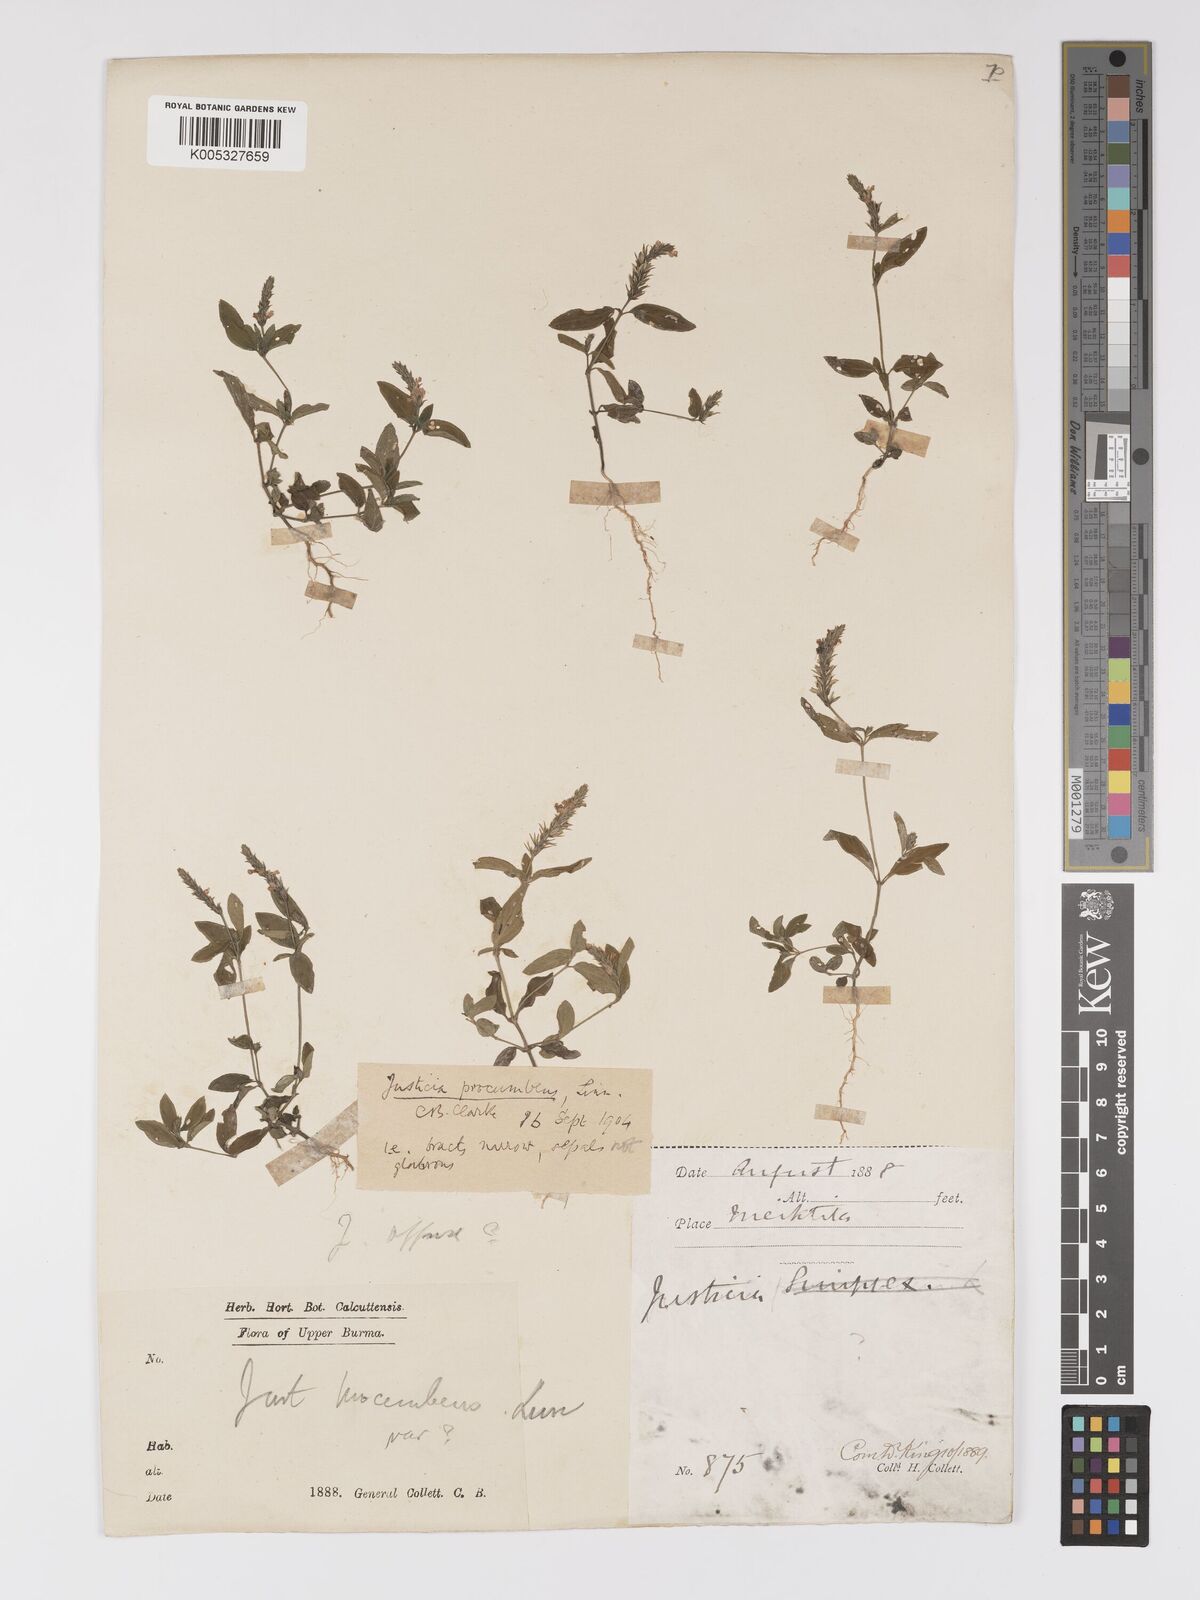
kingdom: Plantae
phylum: Tracheophyta
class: Magnoliopsida
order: Lamiales
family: Acanthaceae
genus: Rostellularia
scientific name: Rostellularia latispica
